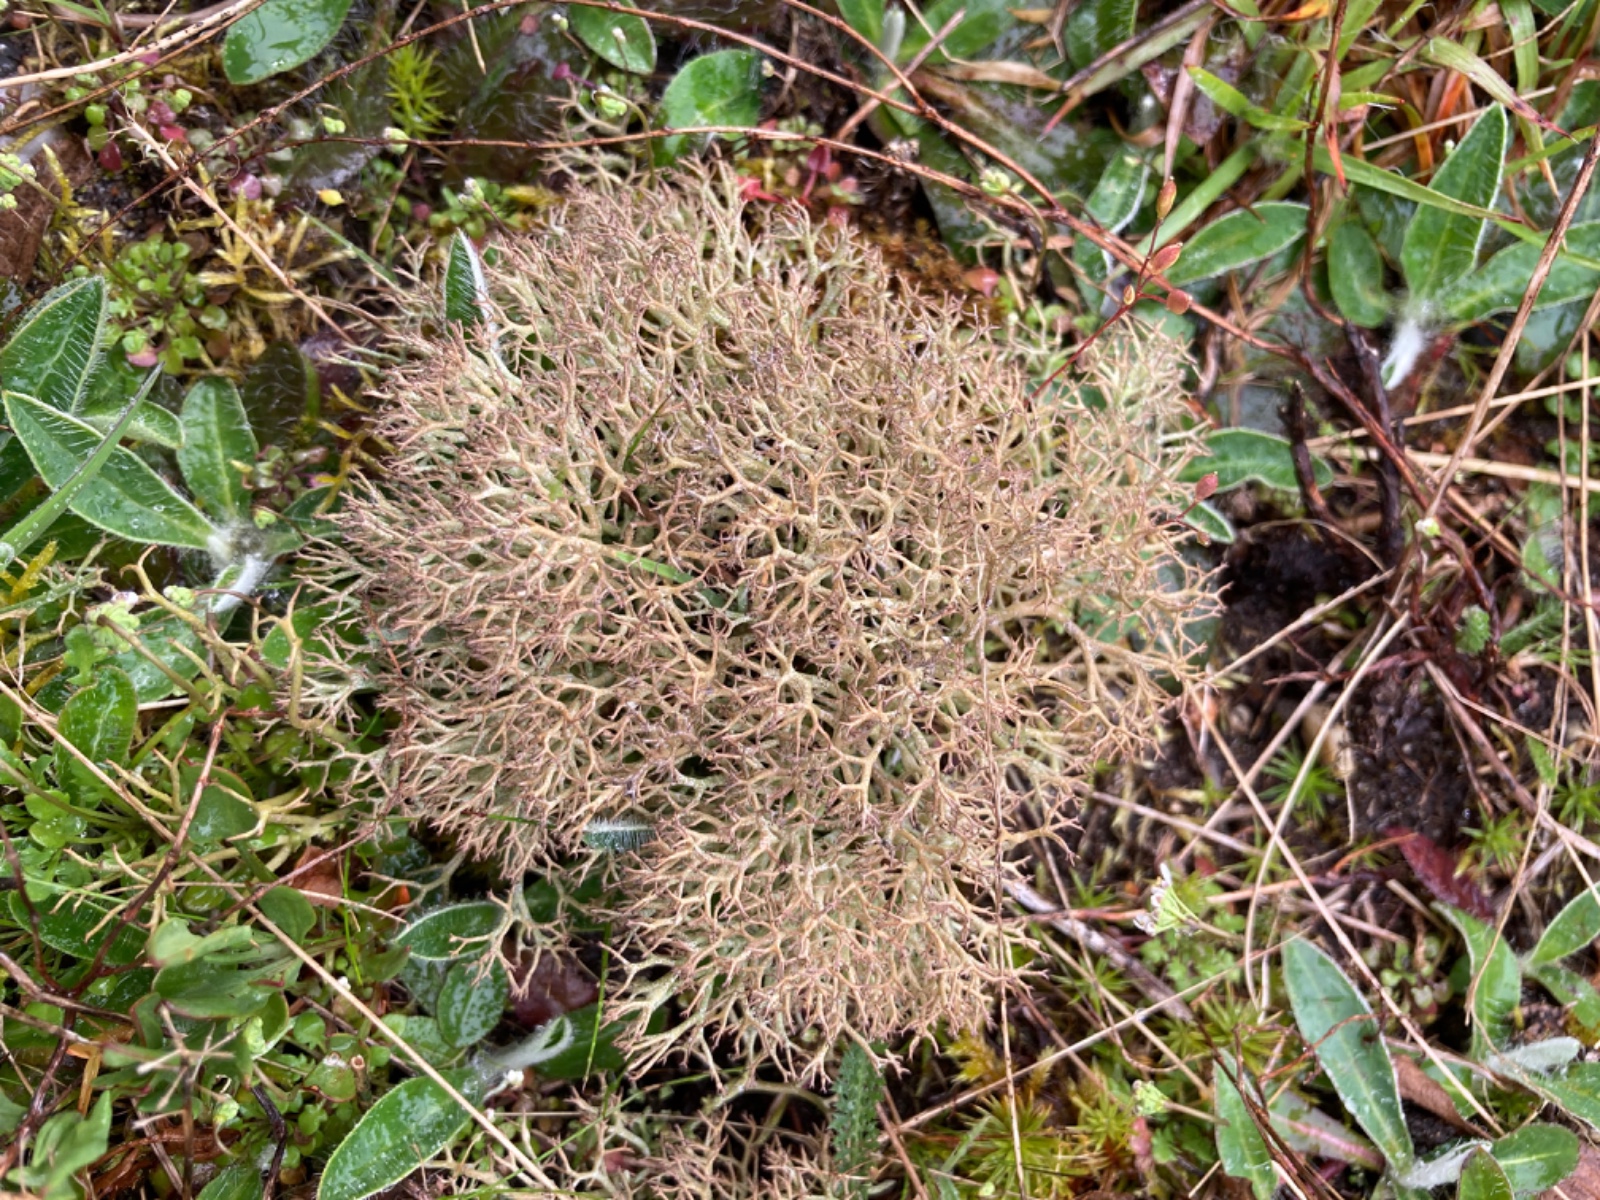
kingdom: Fungi
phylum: Ascomycota
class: Lecanoromycetes
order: Lecanorales
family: Cladoniaceae
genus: Cladonia
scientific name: Cladonia rangiformis
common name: spættet bægerlav
